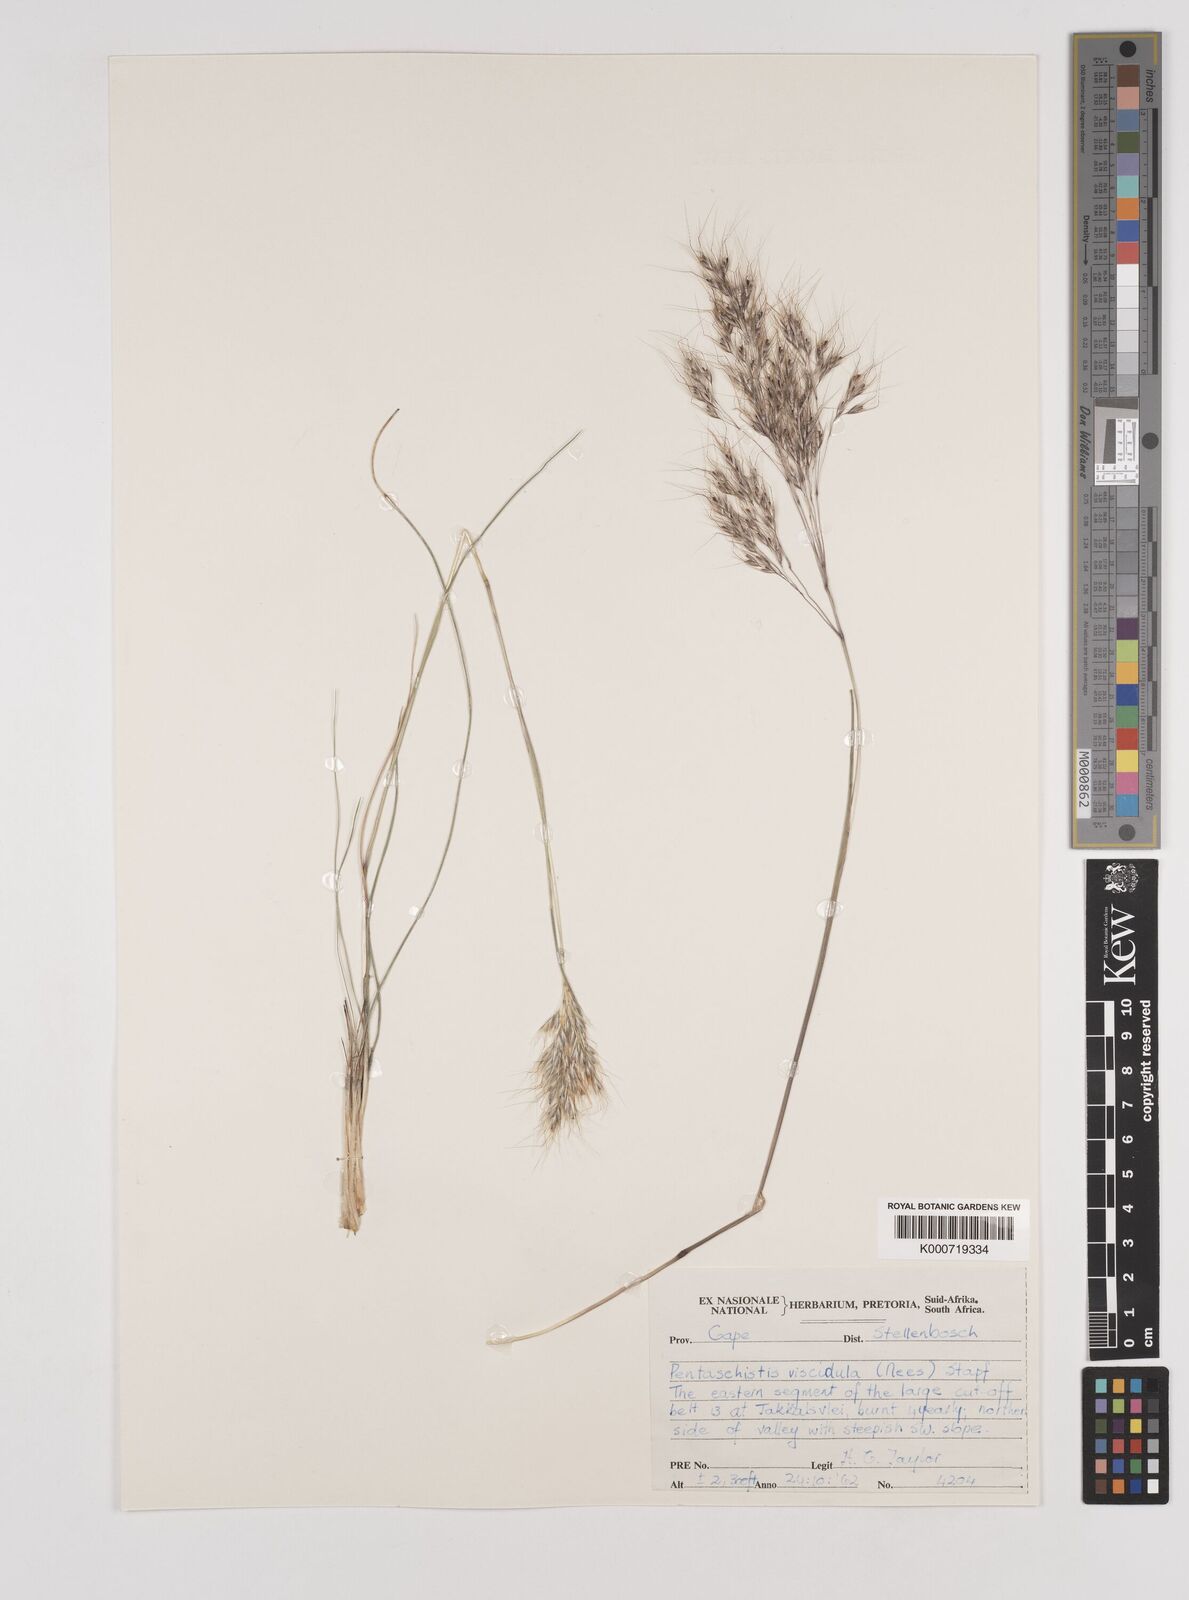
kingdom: Plantae
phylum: Tracheophyta
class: Liliopsida
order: Poales
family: Poaceae
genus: Pentameris
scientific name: Pentameris pallescens
